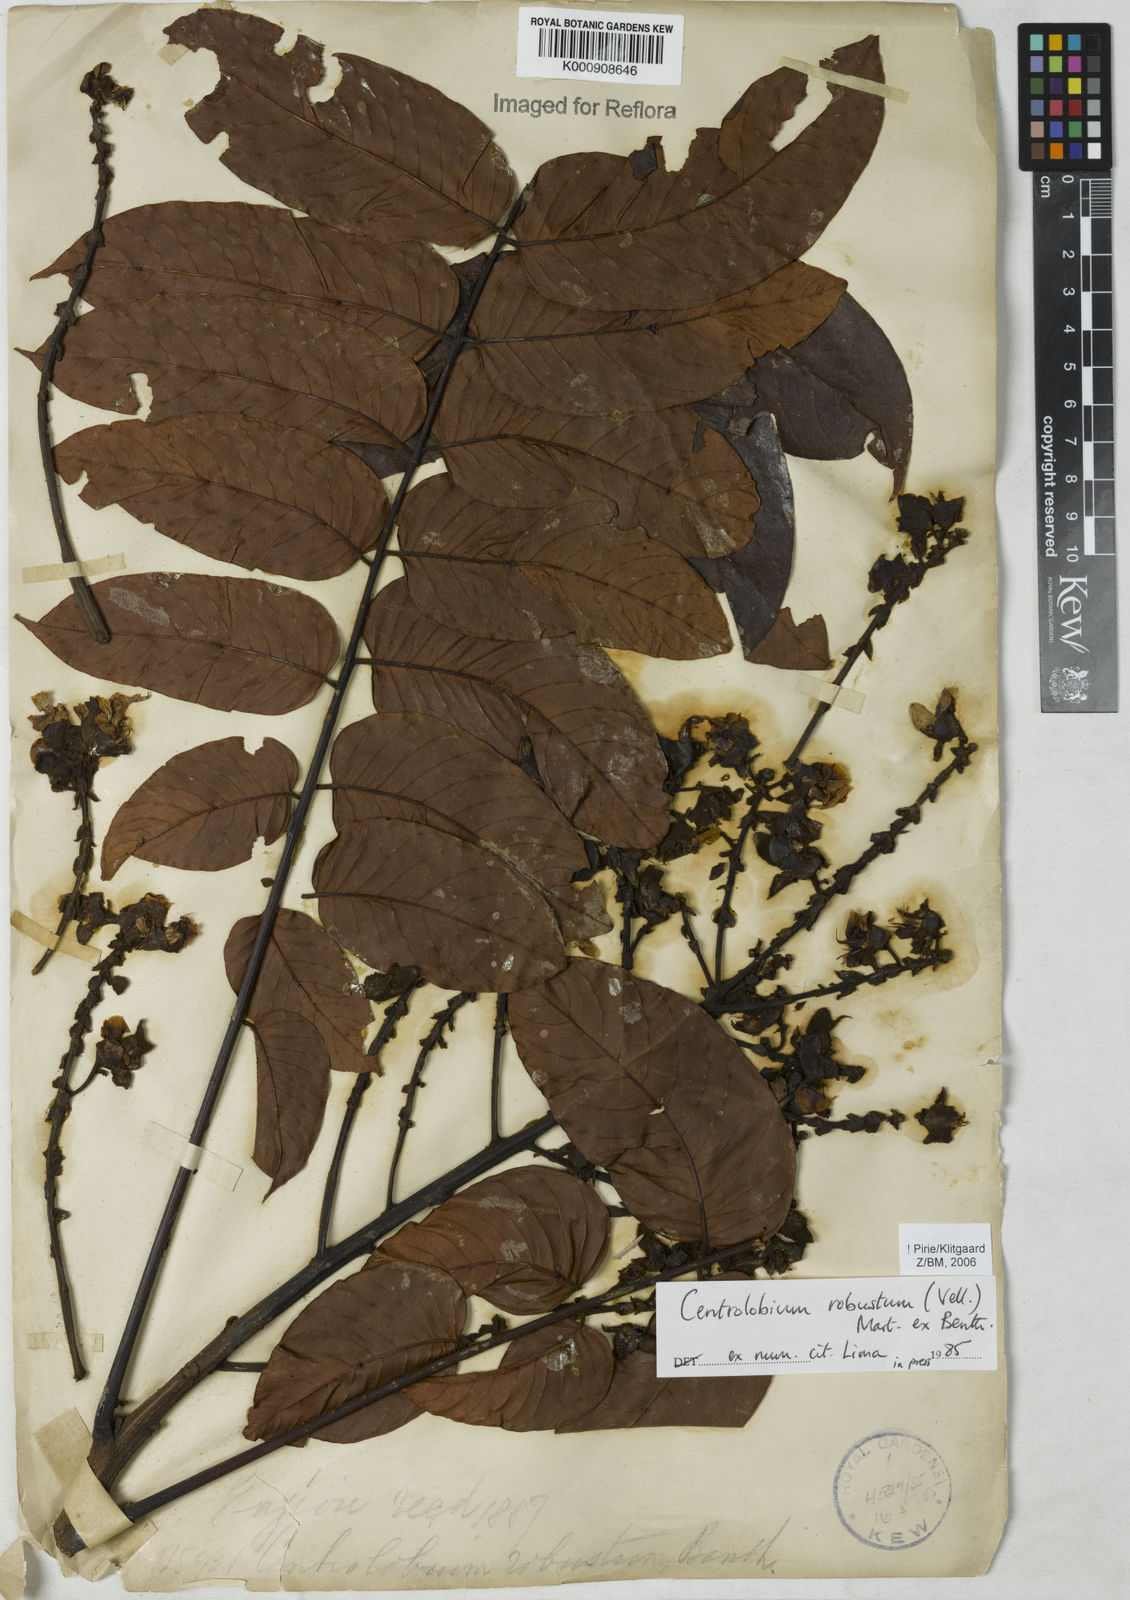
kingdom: Plantae
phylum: Tracheophyta
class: Magnoliopsida
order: Fabales
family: Fabaceae
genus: Centrolobium
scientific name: Centrolobium robustum
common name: Zebrawood
